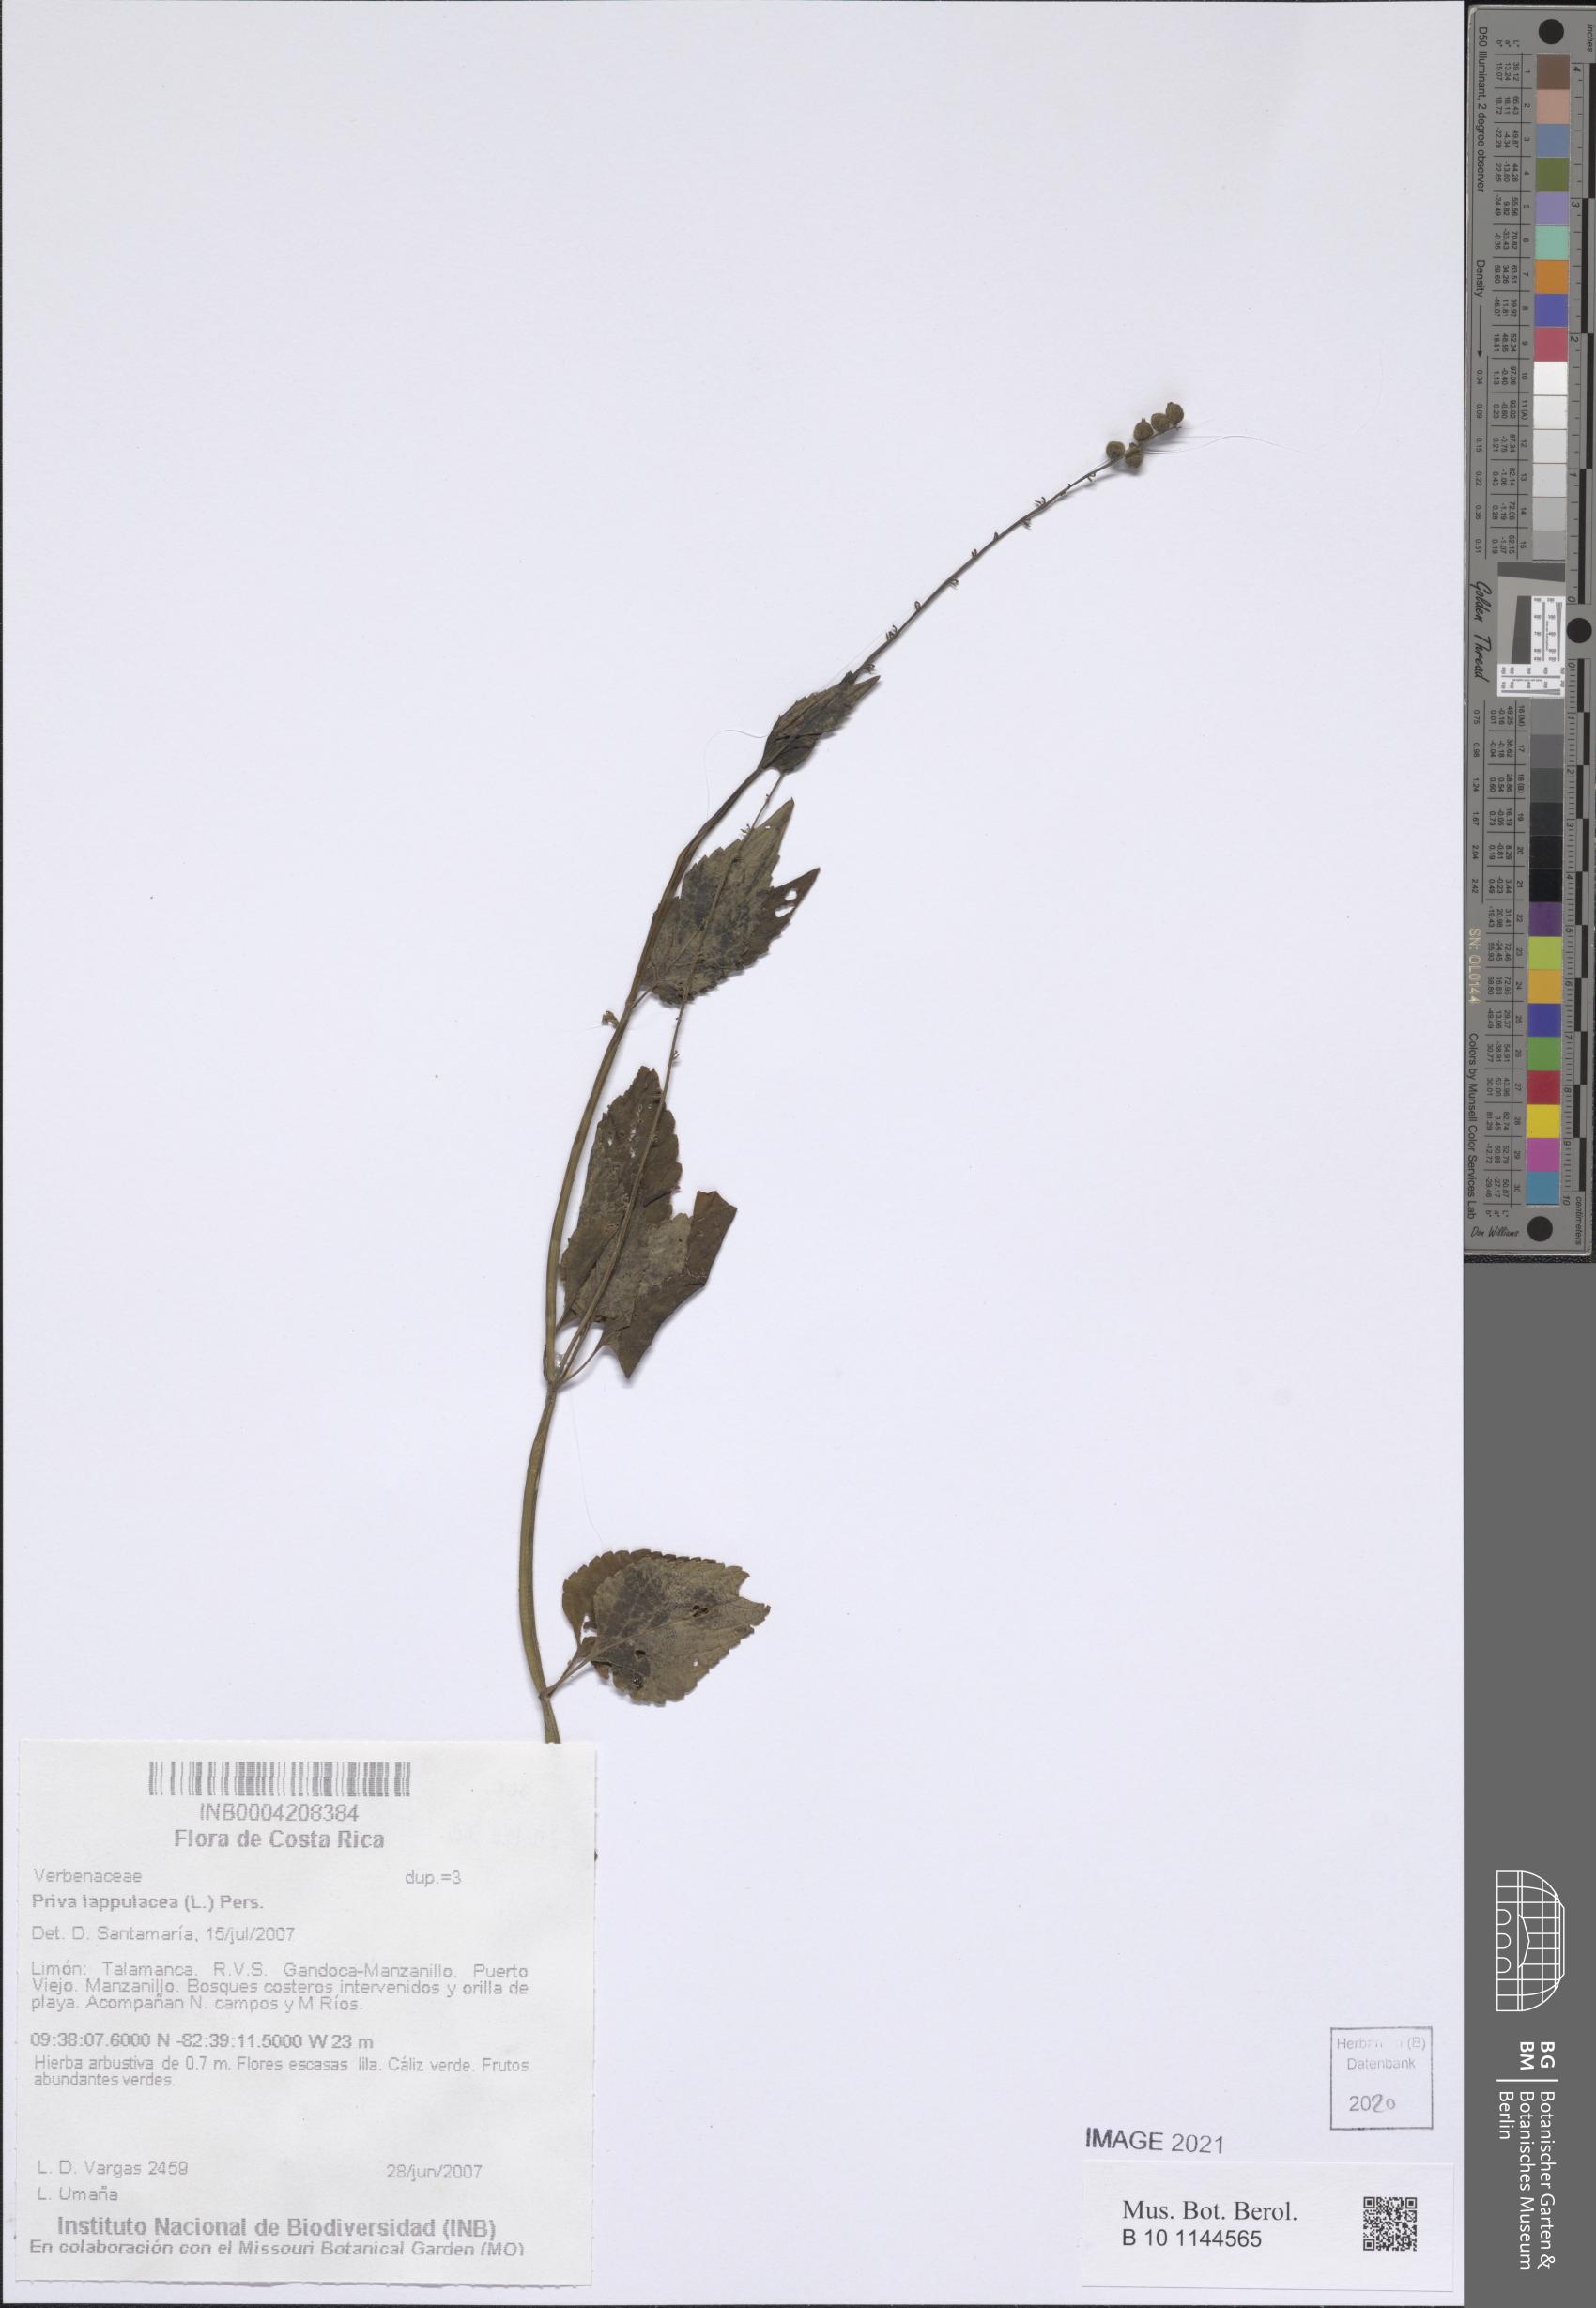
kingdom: Plantae
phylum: Tracheophyta
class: Magnoliopsida
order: Lamiales
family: Verbenaceae
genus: Priva
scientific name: Priva lappulacea
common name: Fasten-'pon-coat
